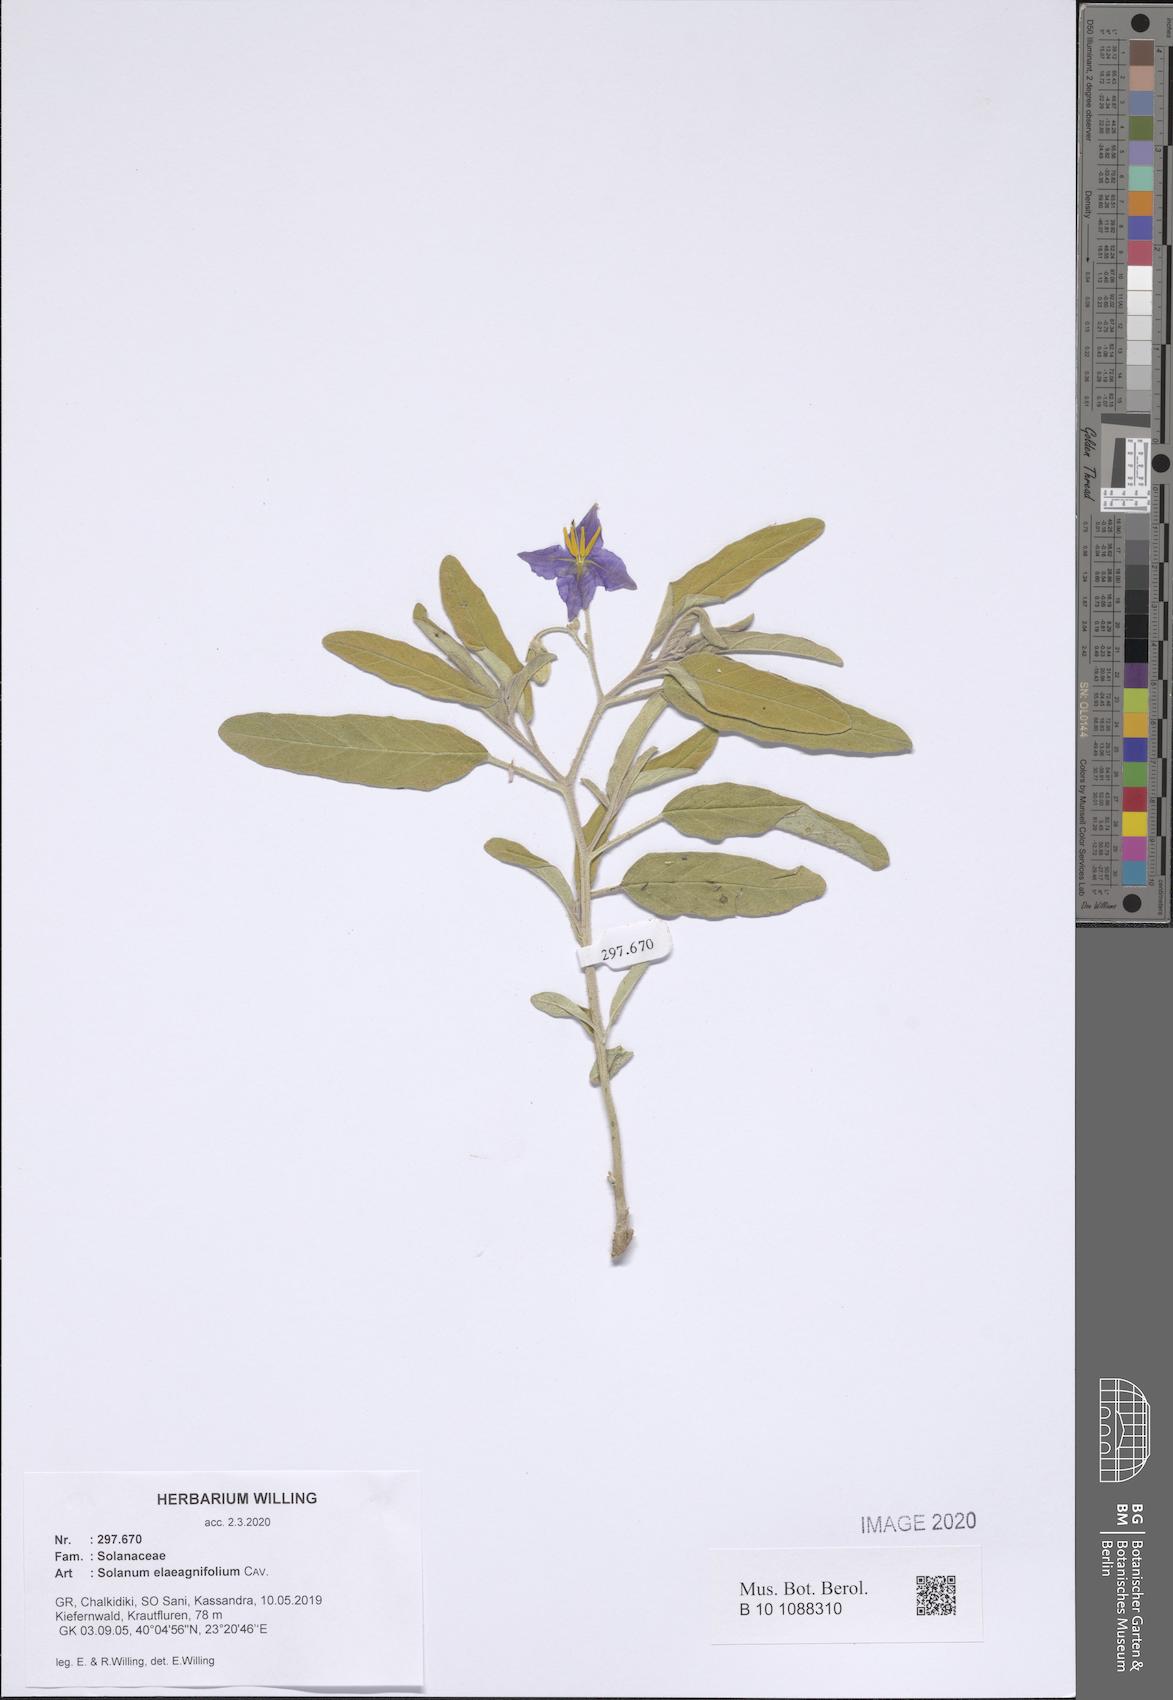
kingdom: Plantae
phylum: Tracheophyta
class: Magnoliopsida
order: Solanales
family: Solanaceae
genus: Solanum
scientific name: Solanum elaeagnifolium
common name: Silverleaf nightshade
